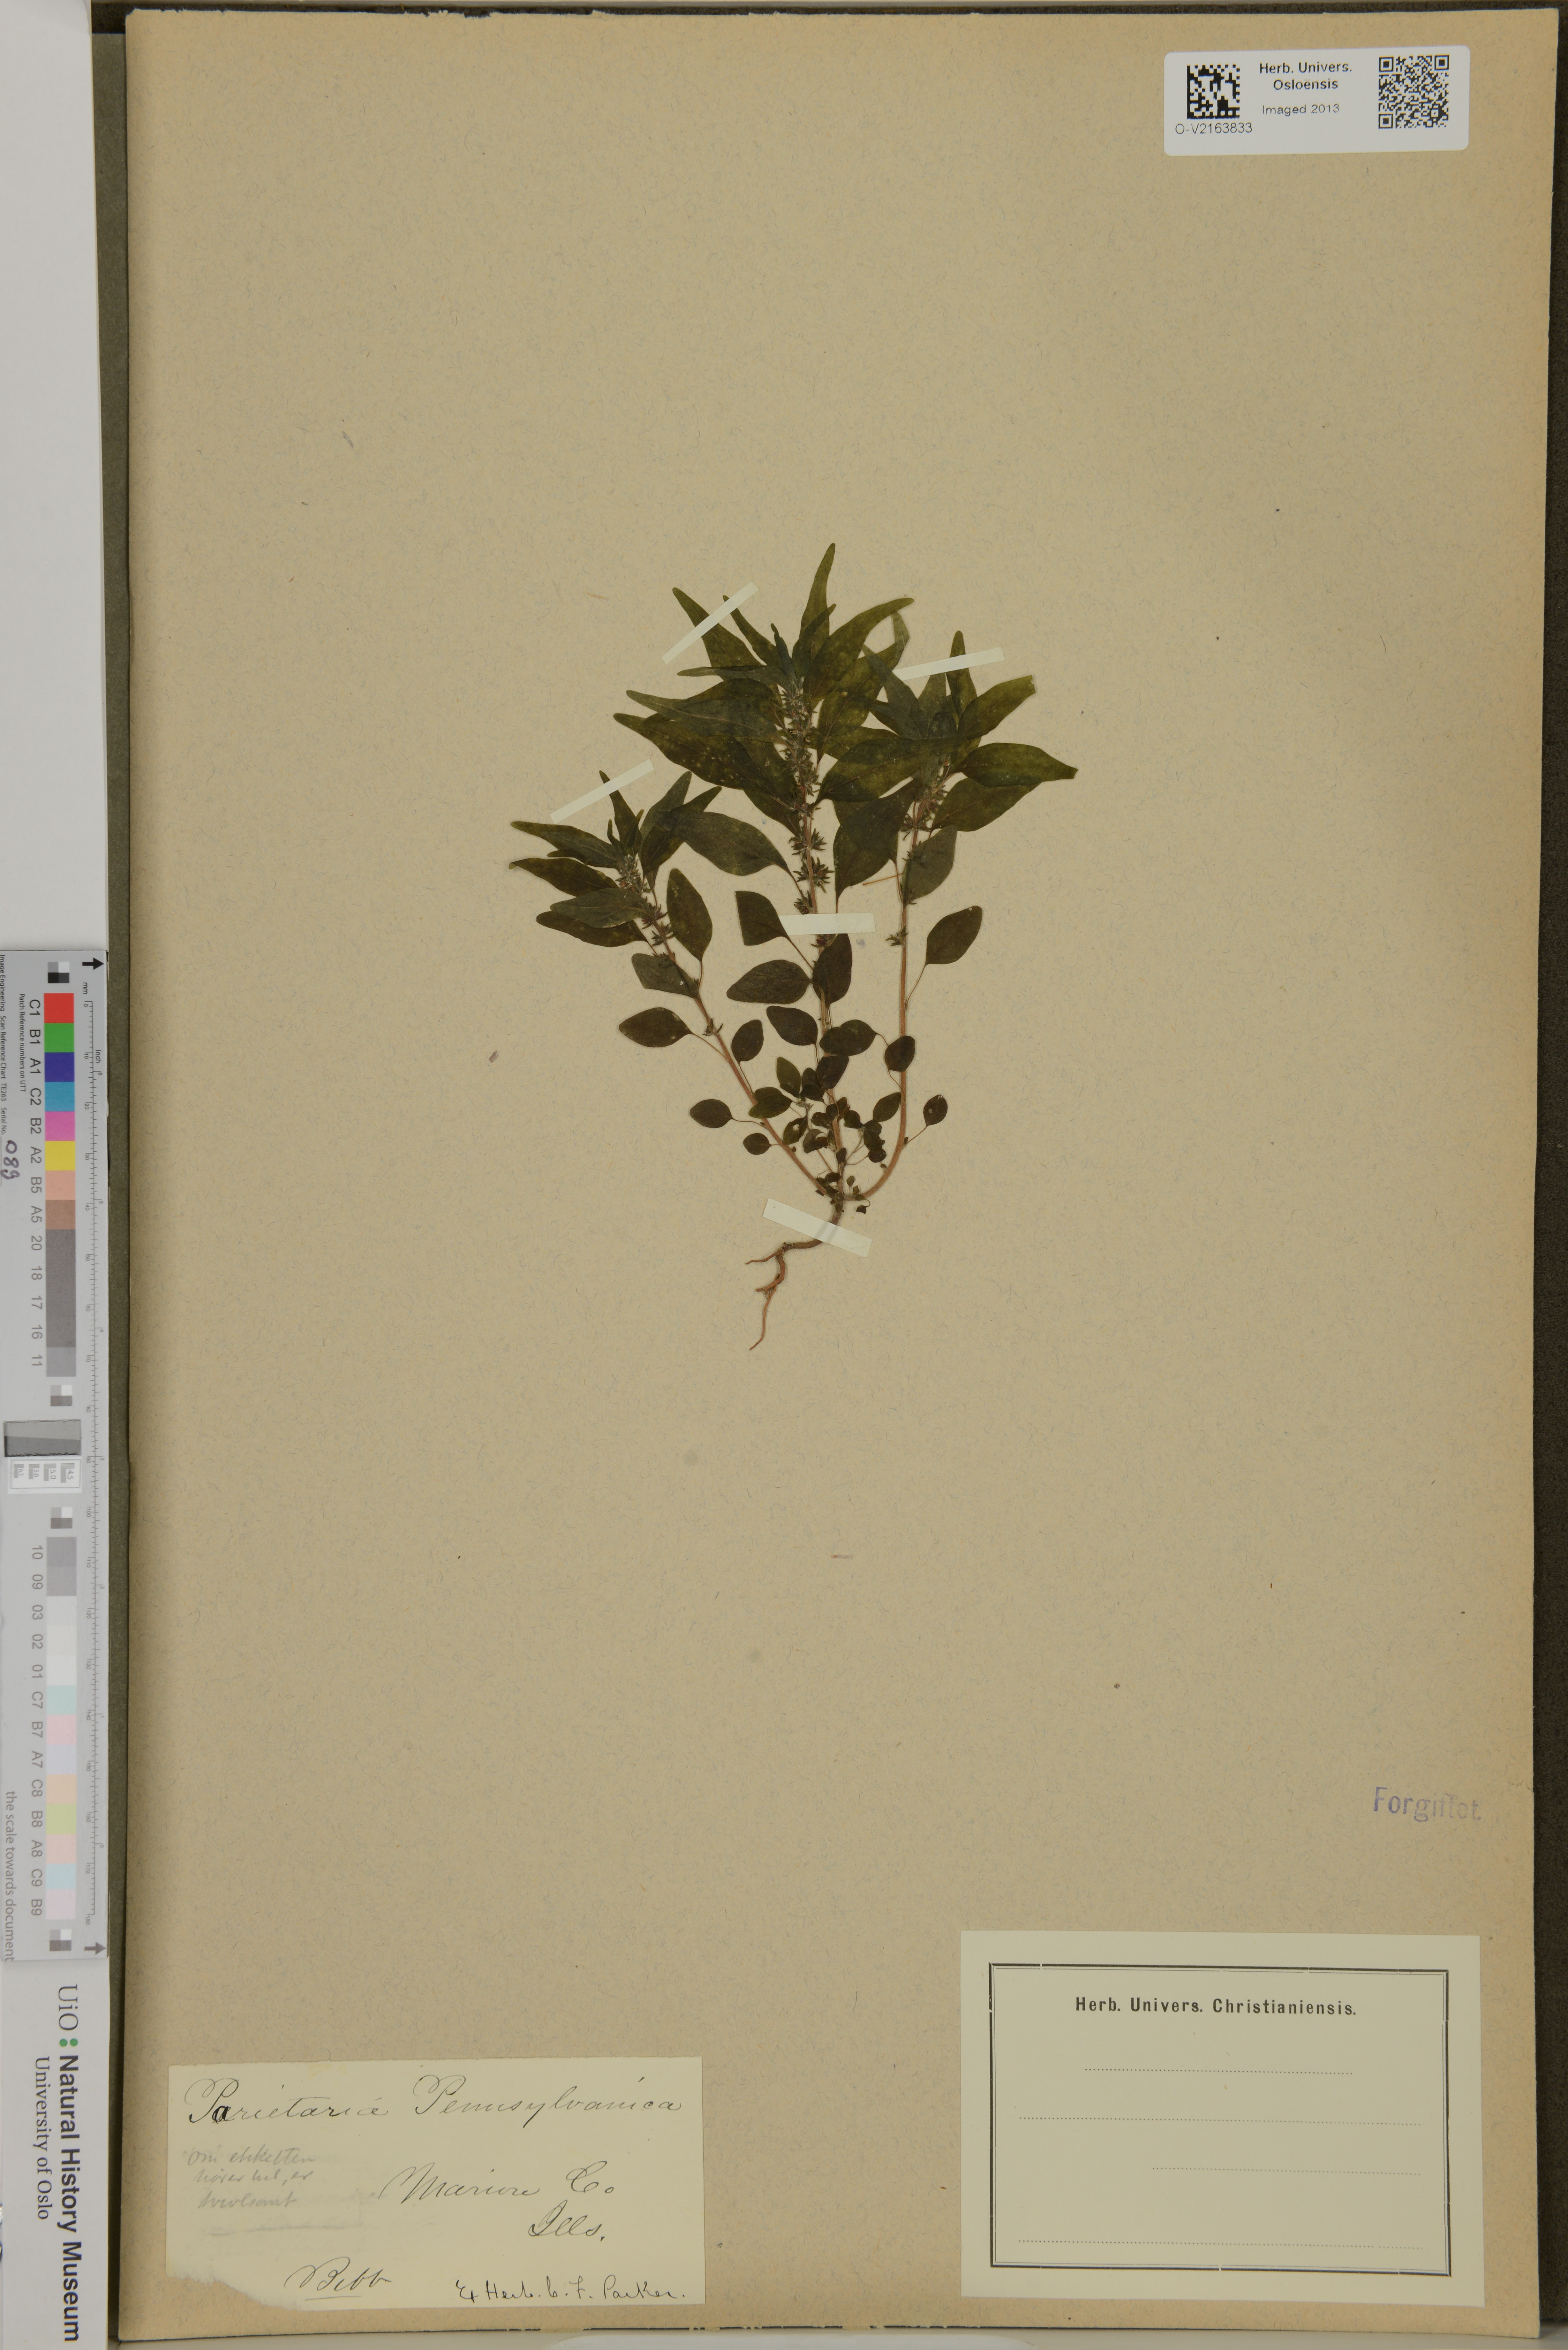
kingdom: Plantae
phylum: Tracheophyta
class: Magnoliopsida
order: Rosales
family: Urticaceae
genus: Parietaria
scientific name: Parietaria pensylvanica
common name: Pennsylvania pellitory
